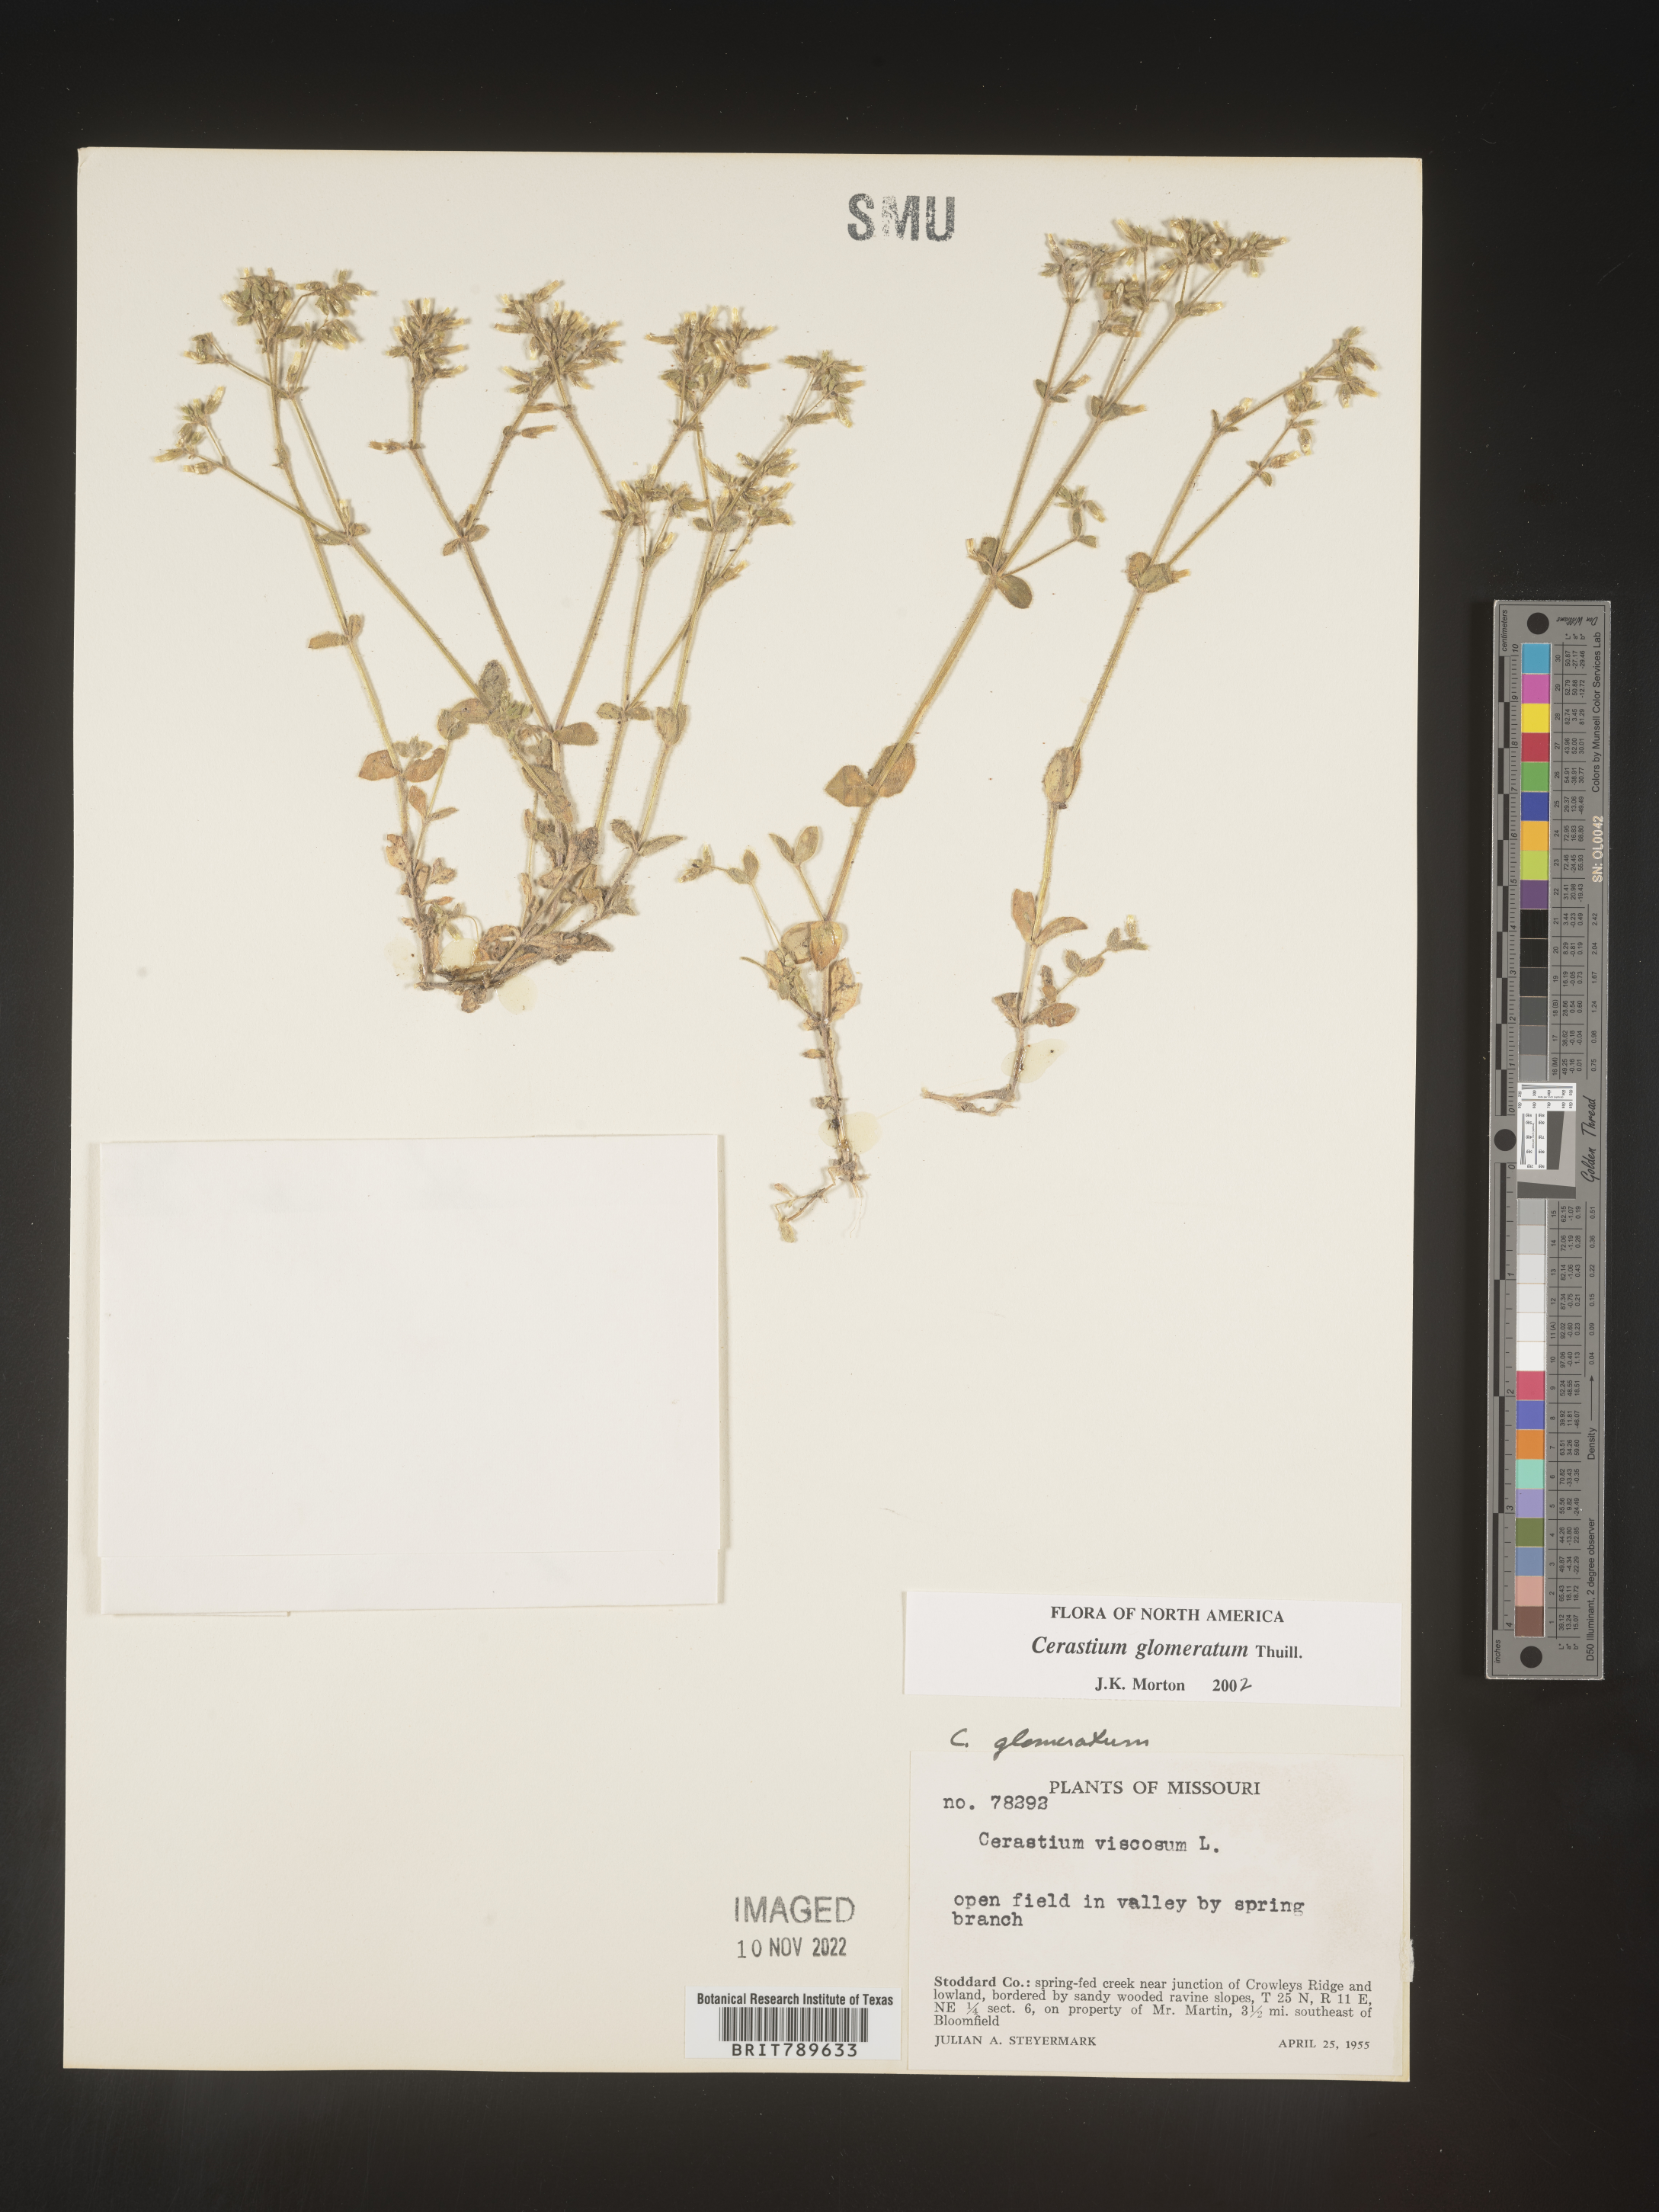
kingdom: Plantae
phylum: Tracheophyta
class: Magnoliopsida
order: Caryophyllales
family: Caryophyllaceae
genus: Cerastium
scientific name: Cerastium glomeratum
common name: Sticky chickweed
